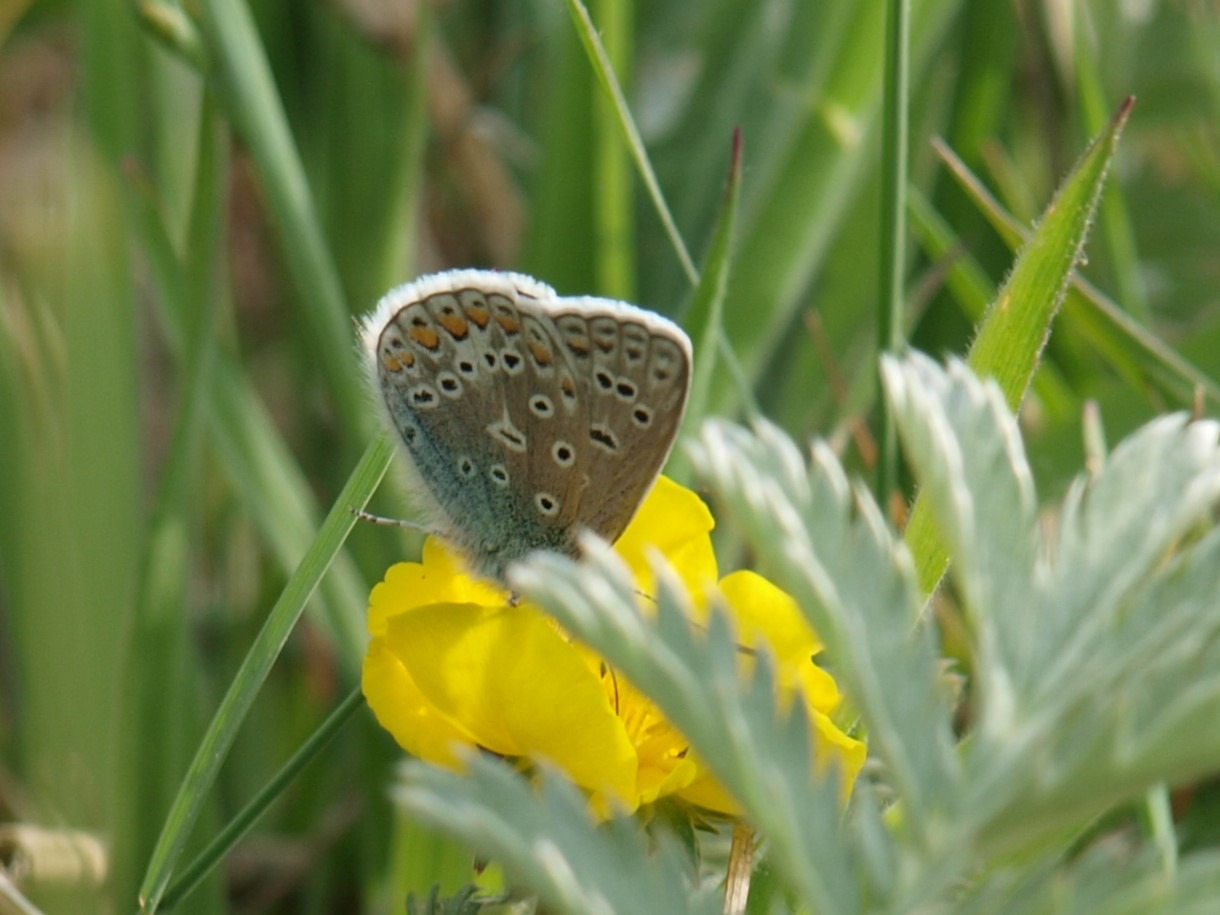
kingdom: Animalia
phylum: Arthropoda
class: Insecta
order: Lepidoptera
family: Lycaenidae
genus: Polyommatus
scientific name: Polyommatus icarus
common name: Almindelig blåfugl
